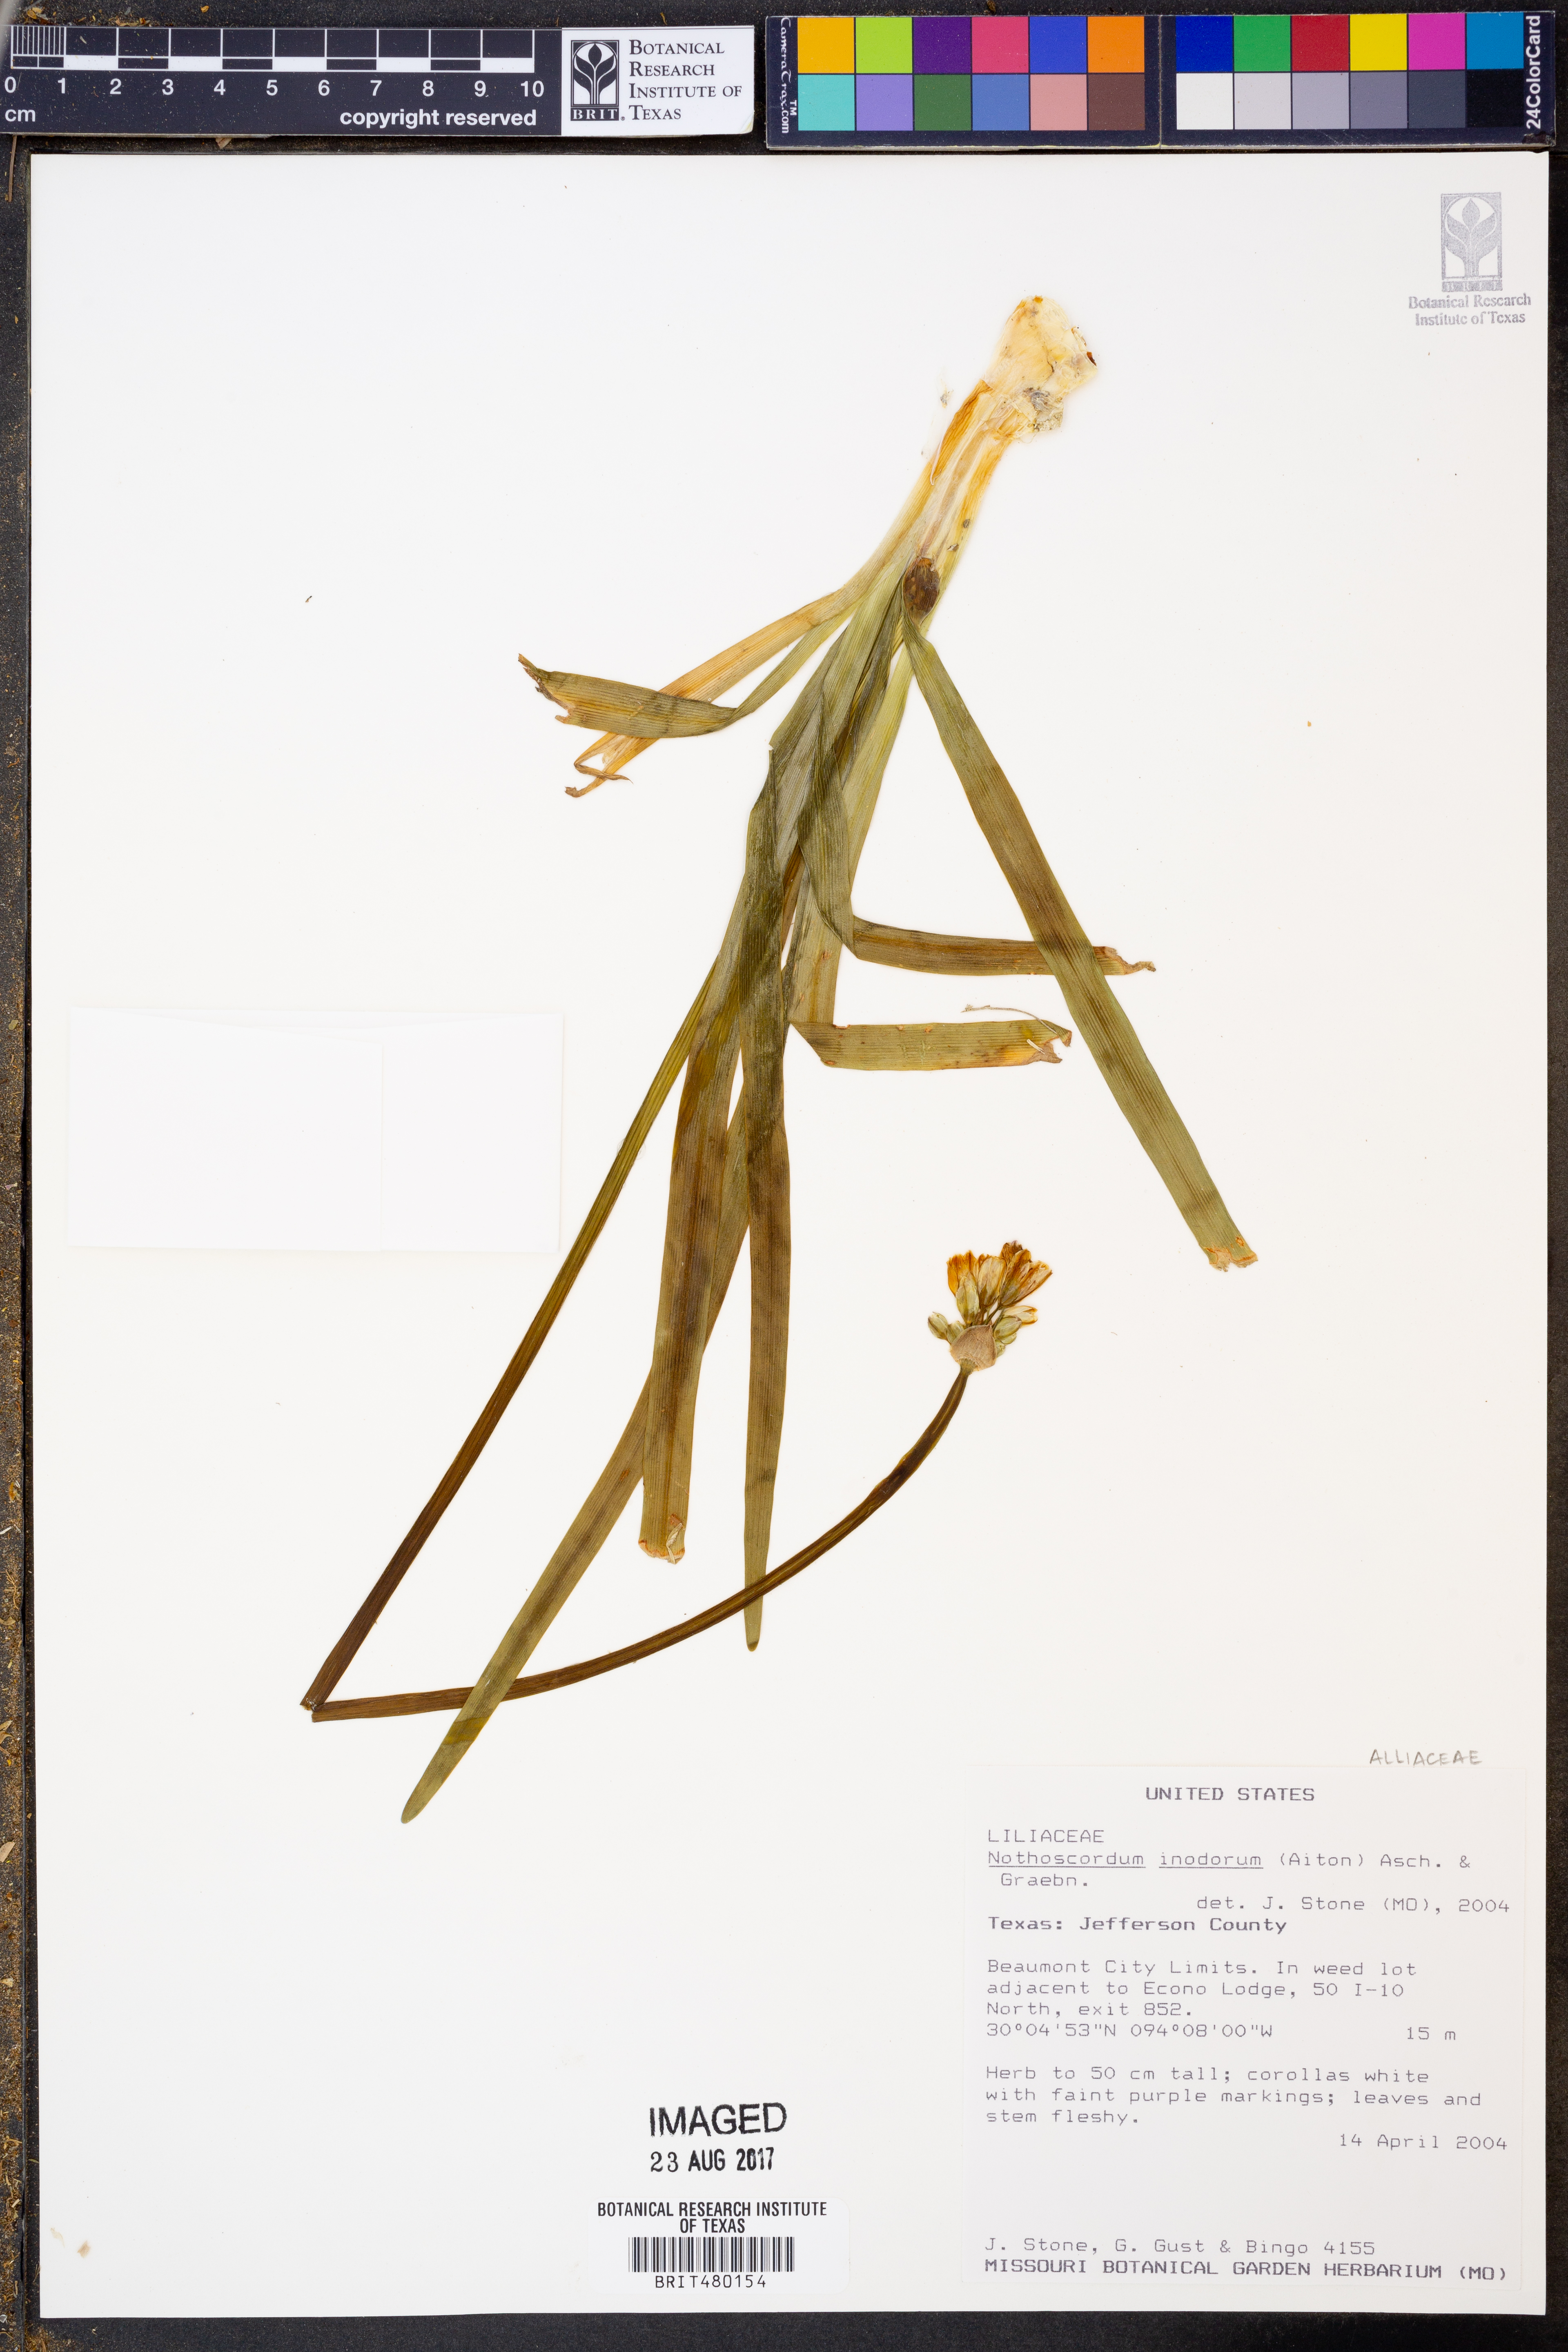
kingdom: Plantae
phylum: Tracheophyta
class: Liliopsida
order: Asparagales
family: Amaryllidaceae
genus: Allium
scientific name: Allium neapolitanum
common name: Neapolitan garlic
